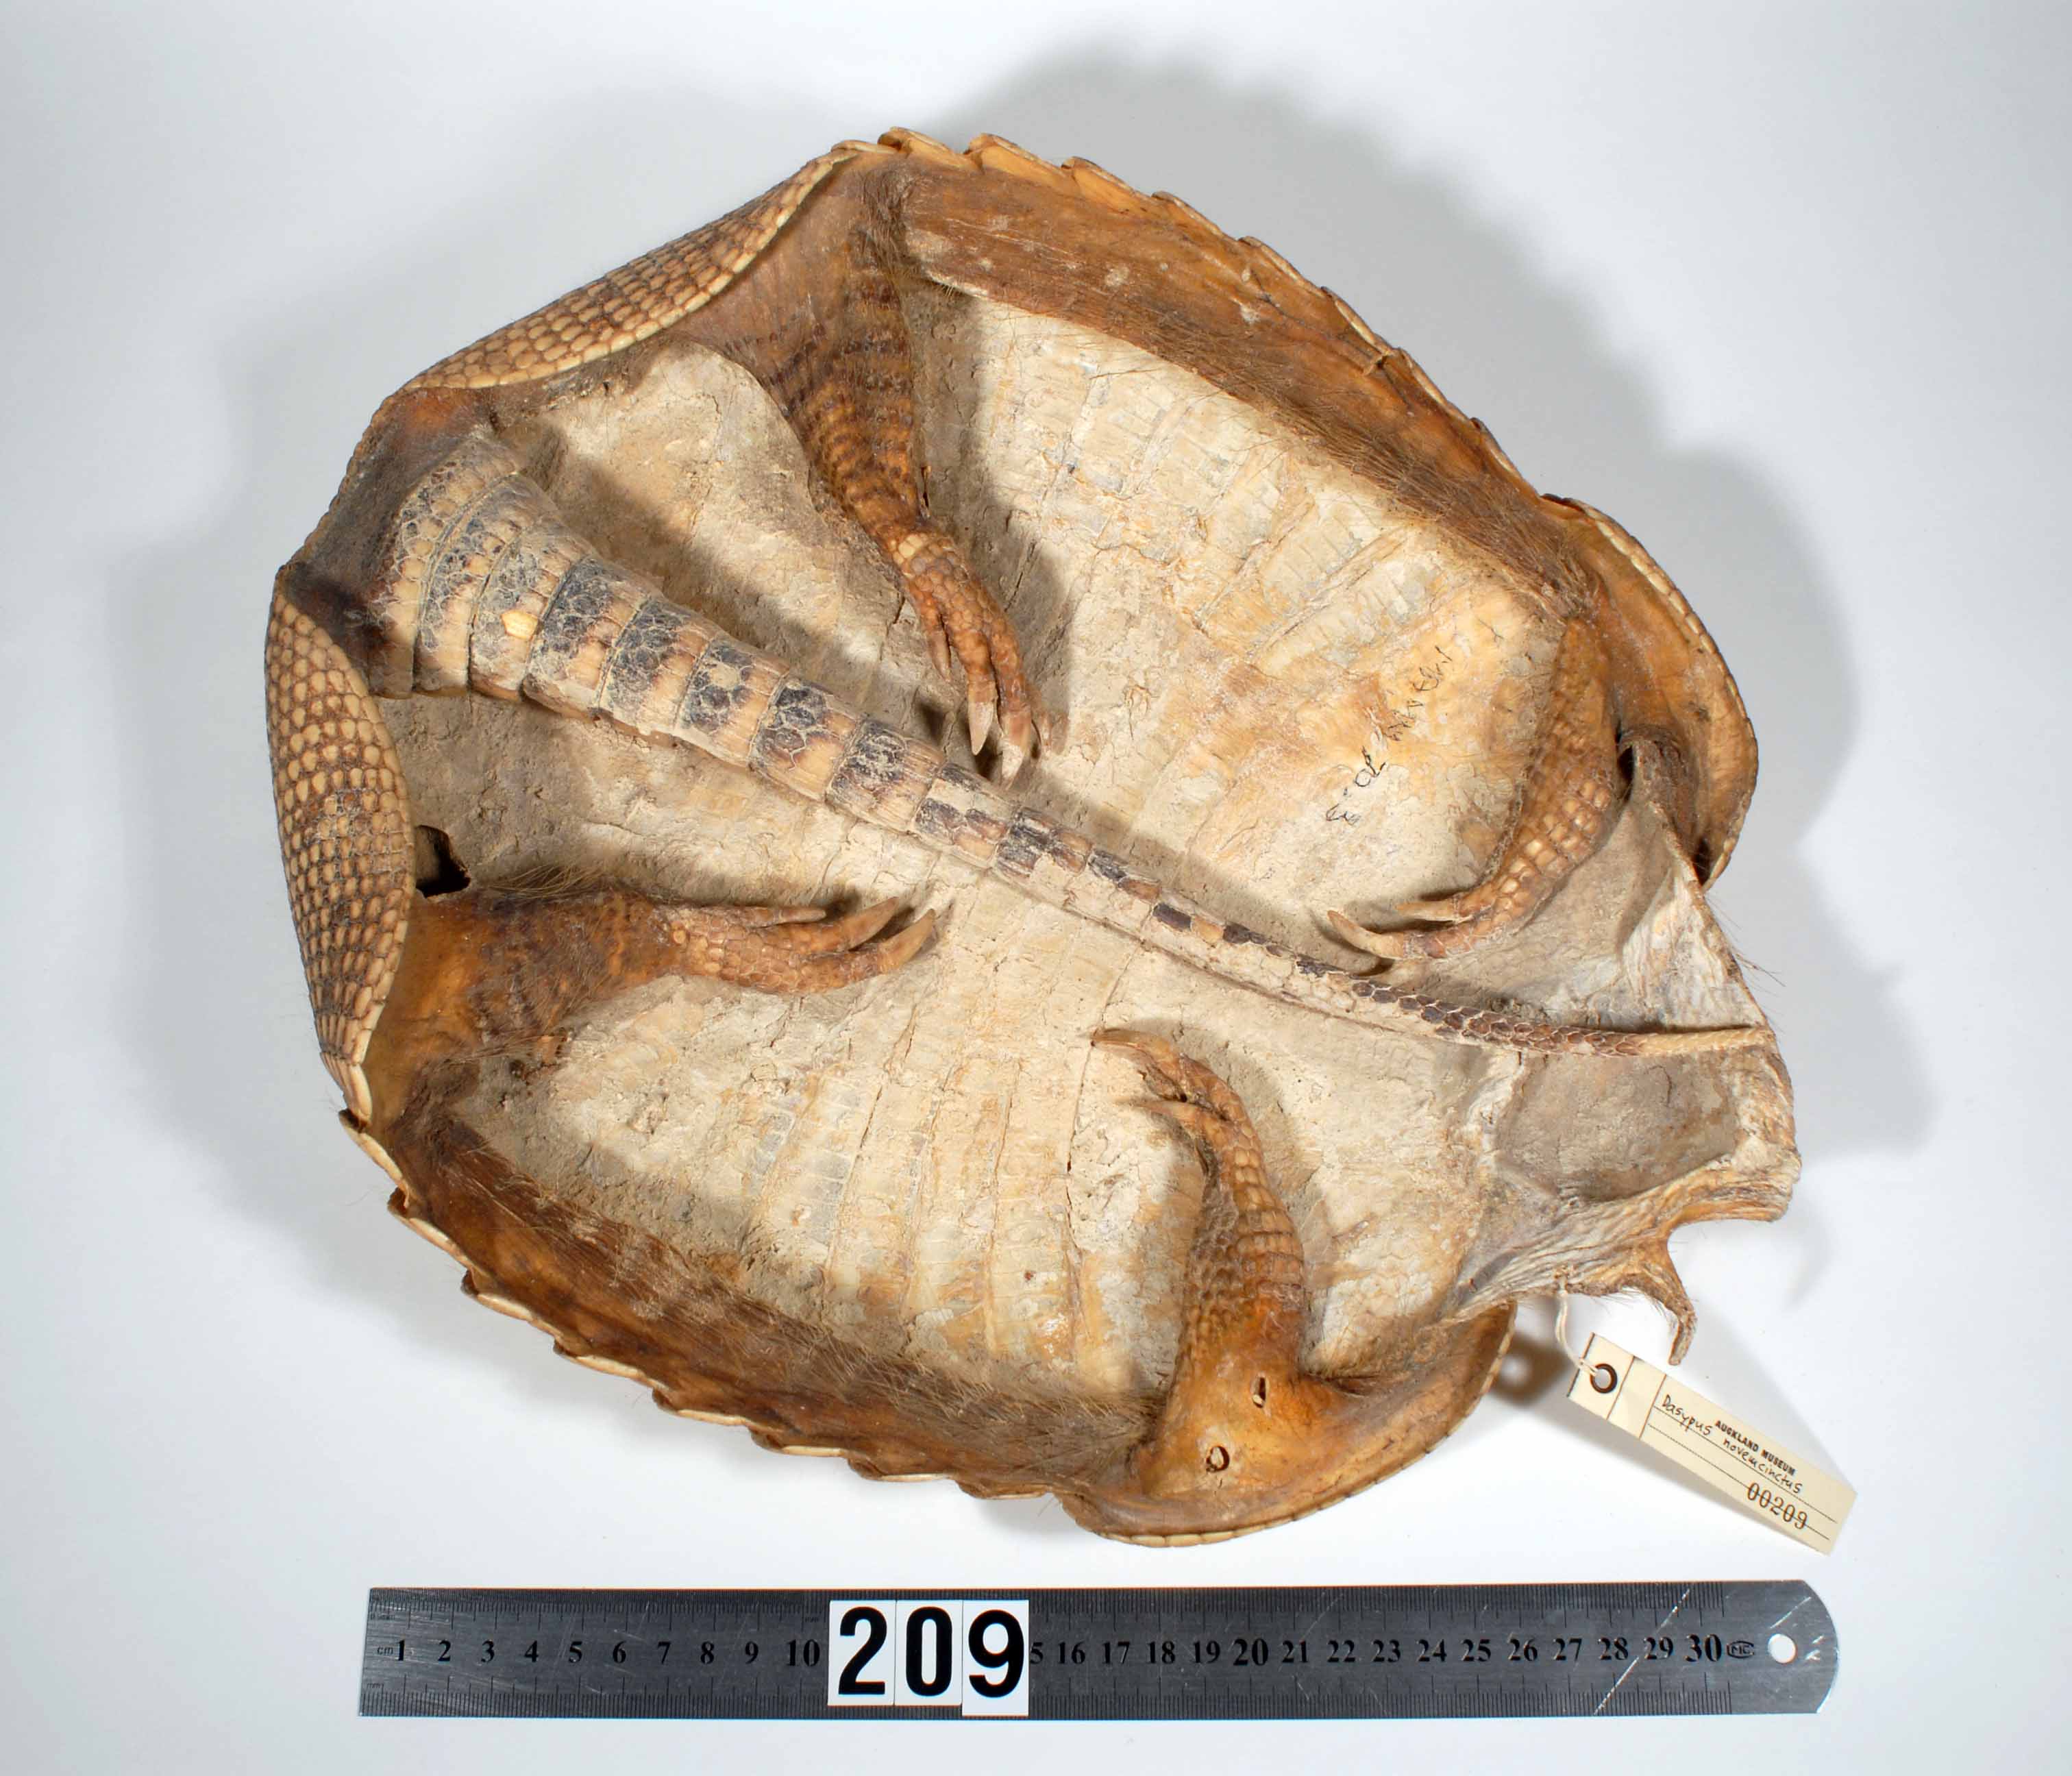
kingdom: Animalia
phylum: Chordata
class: Mammalia
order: Cingulata
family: Dasypodidae
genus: Dasypus
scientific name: Dasypus novemcinctus
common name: Nine-banded armadillo
